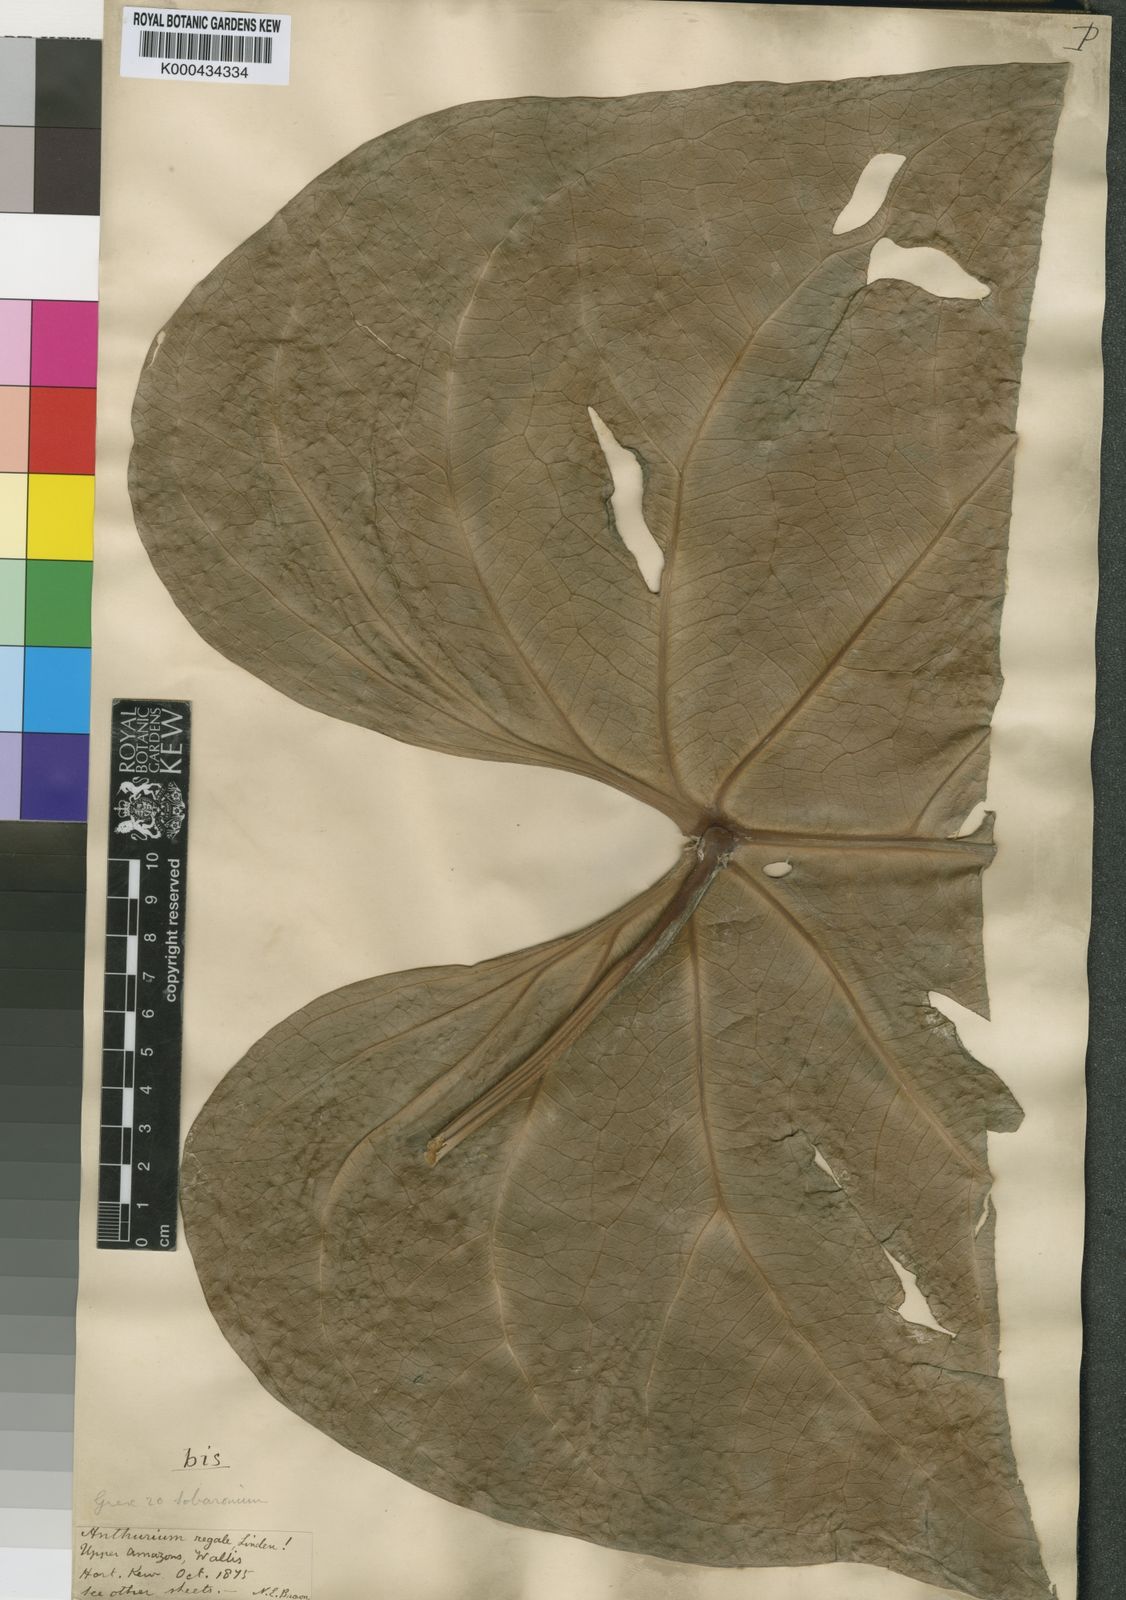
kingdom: Plantae
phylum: Tracheophyta
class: Liliopsida
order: Alismatales
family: Araceae
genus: Anthurium
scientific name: Anthurium regale
